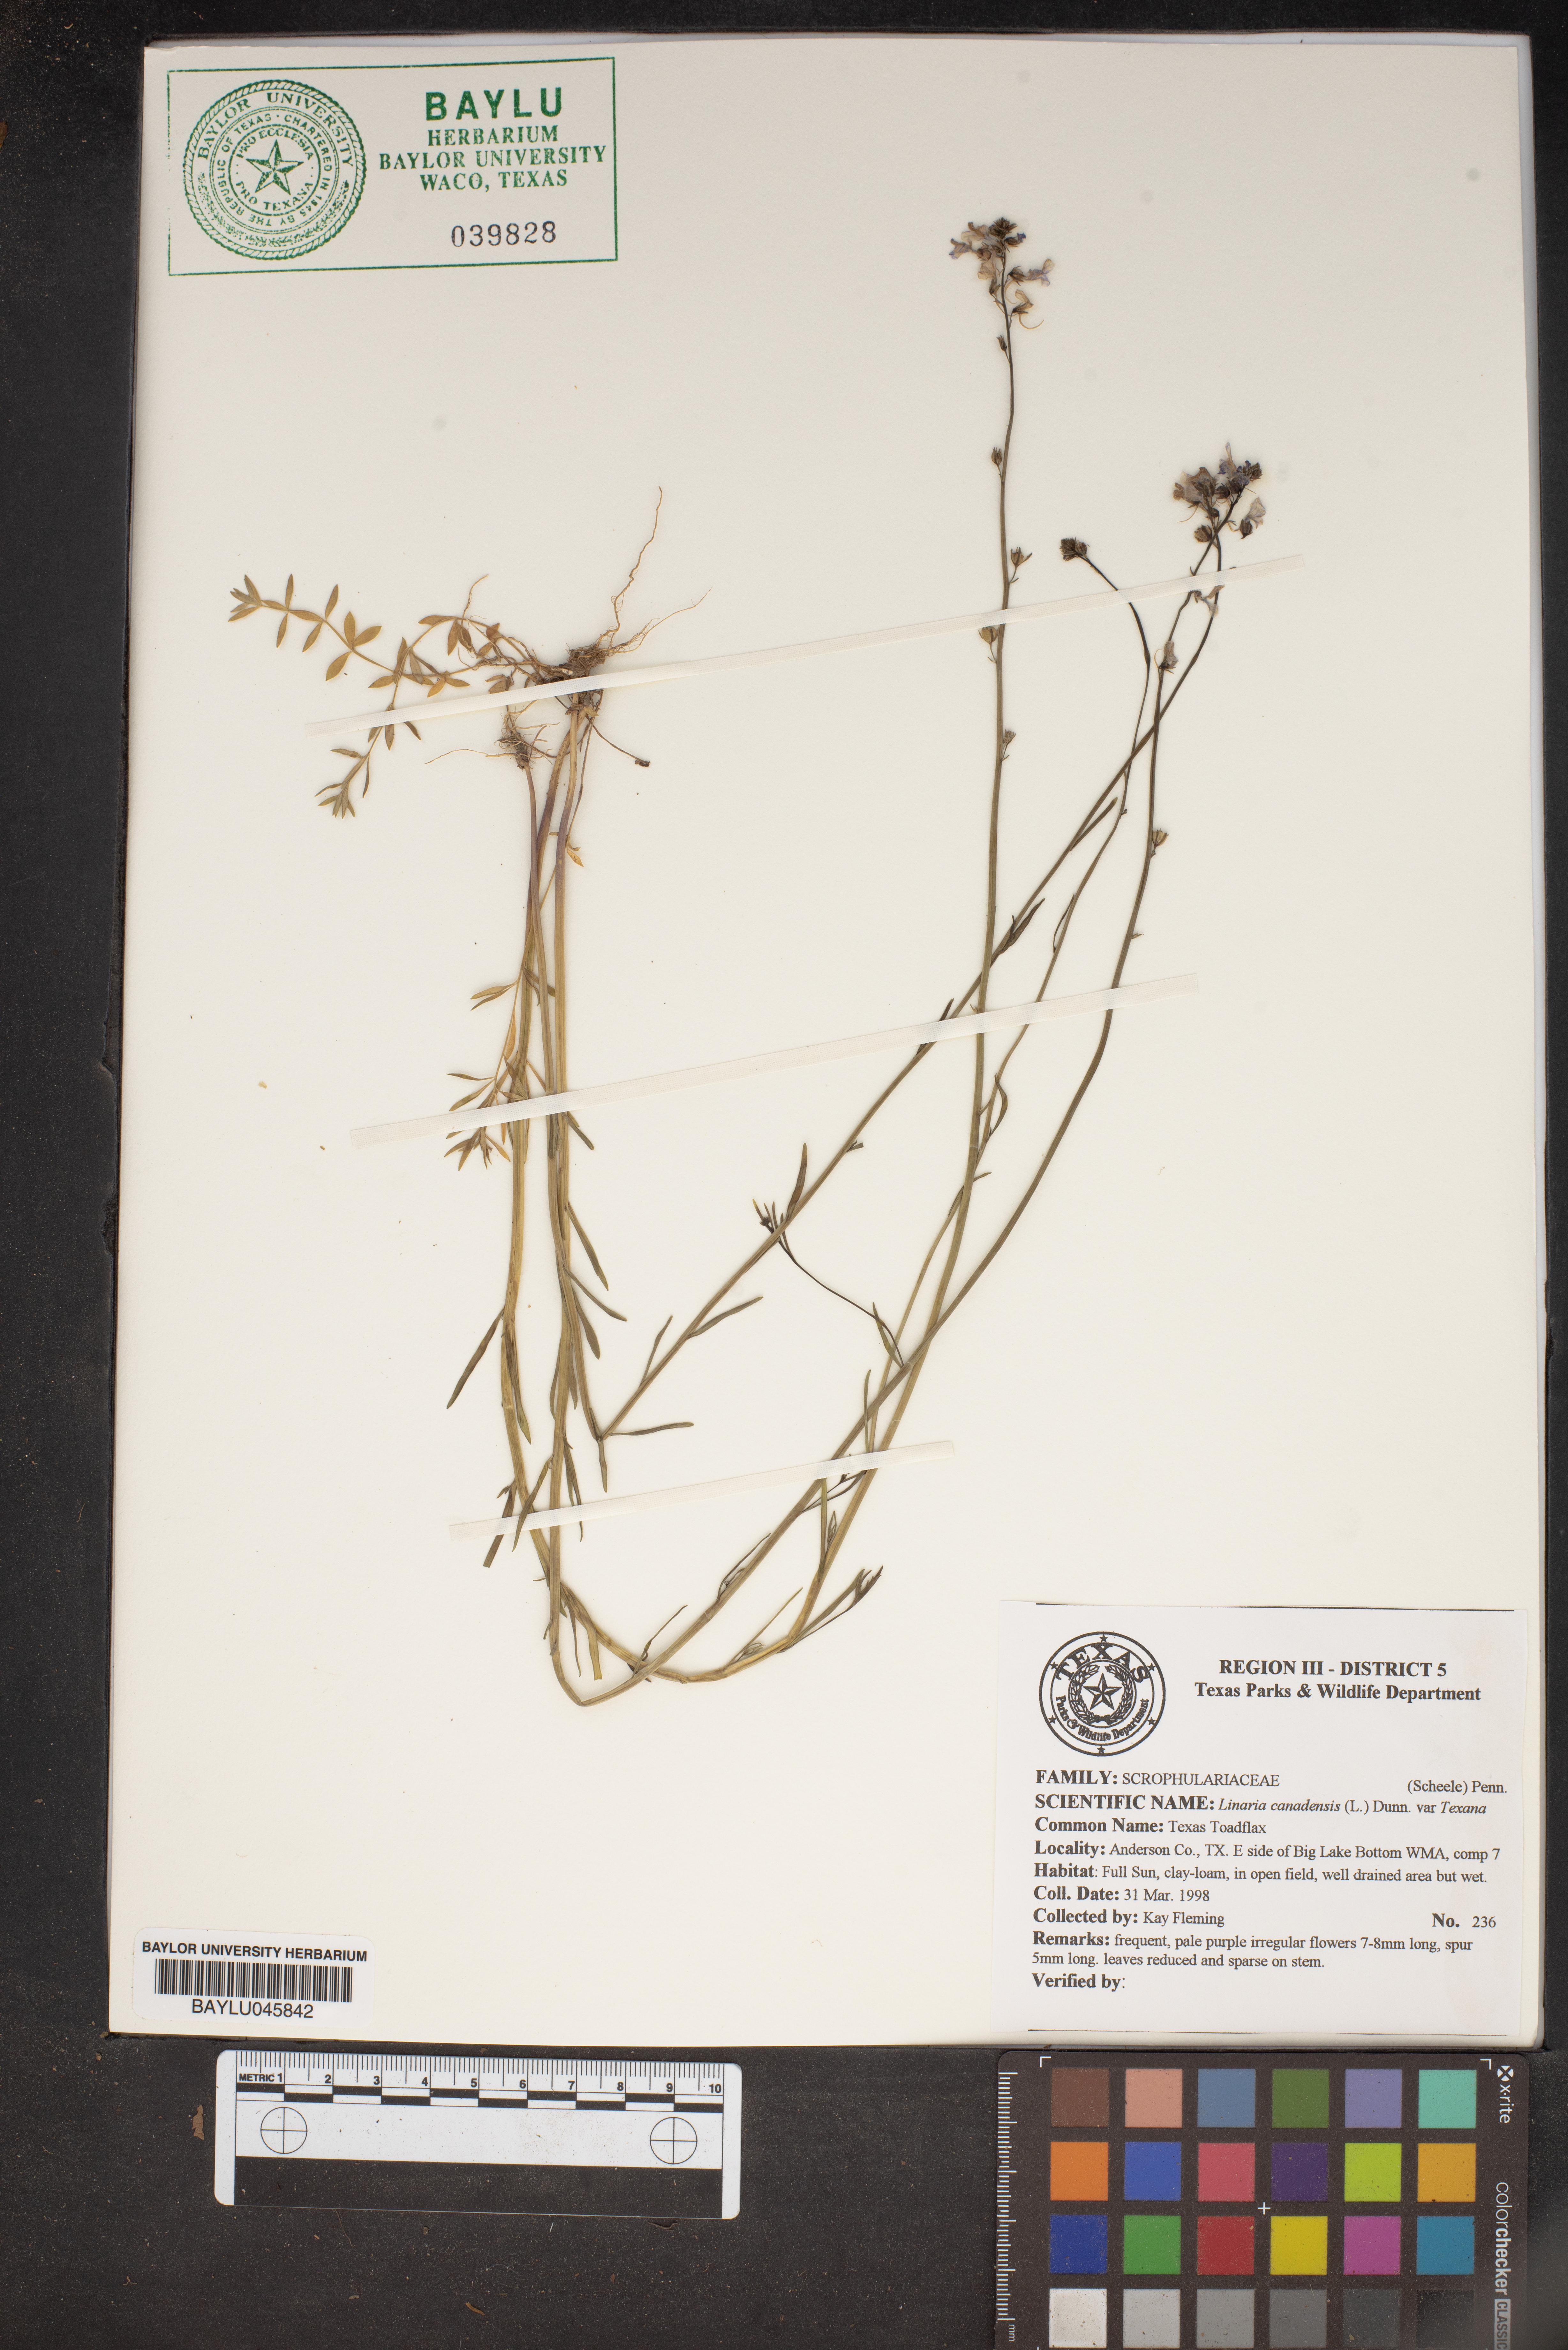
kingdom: Plantae
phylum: Tracheophyta
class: Magnoliopsida
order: Lamiales
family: Plantaginaceae
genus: Nuttallanthus
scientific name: Nuttallanthus texanus
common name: Texas toadflax
